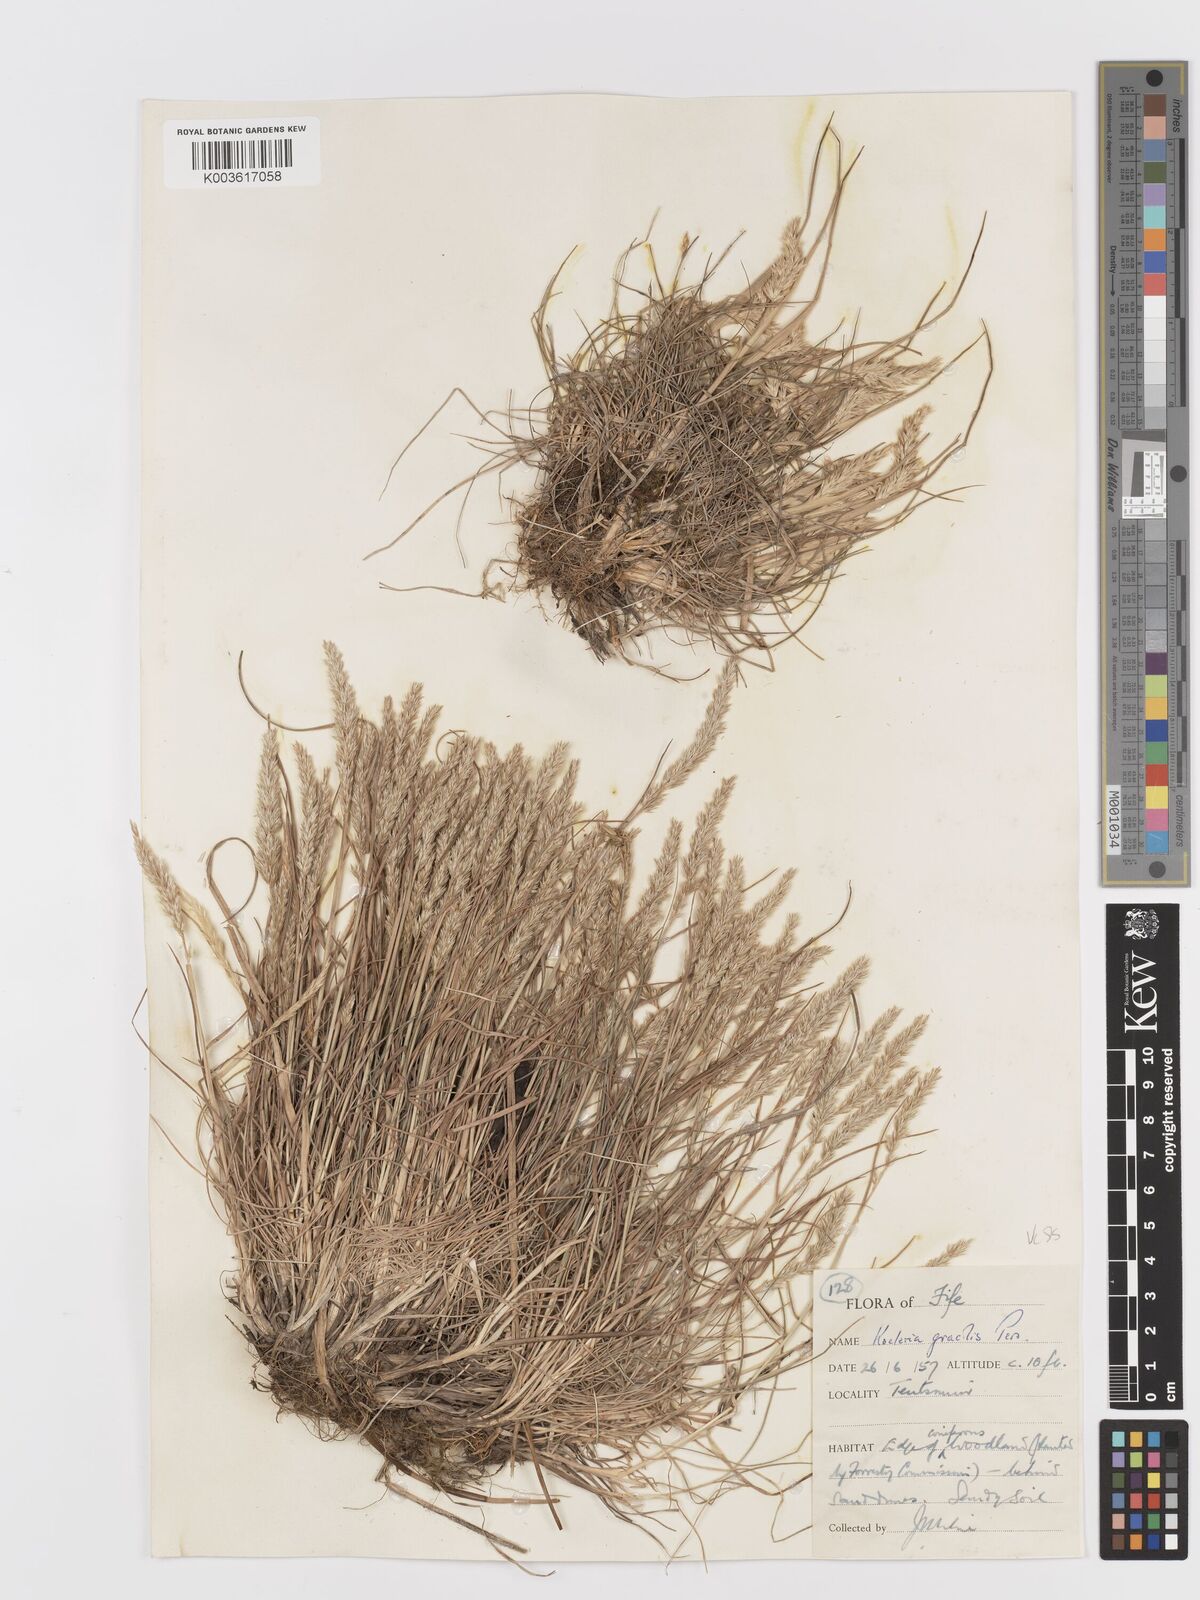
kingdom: Plantae
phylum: Tracheophyta
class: Liliopsida
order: Poales
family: Poaceae
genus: Koeleria
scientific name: Koeleria macrantha
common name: Crested hair-grass
